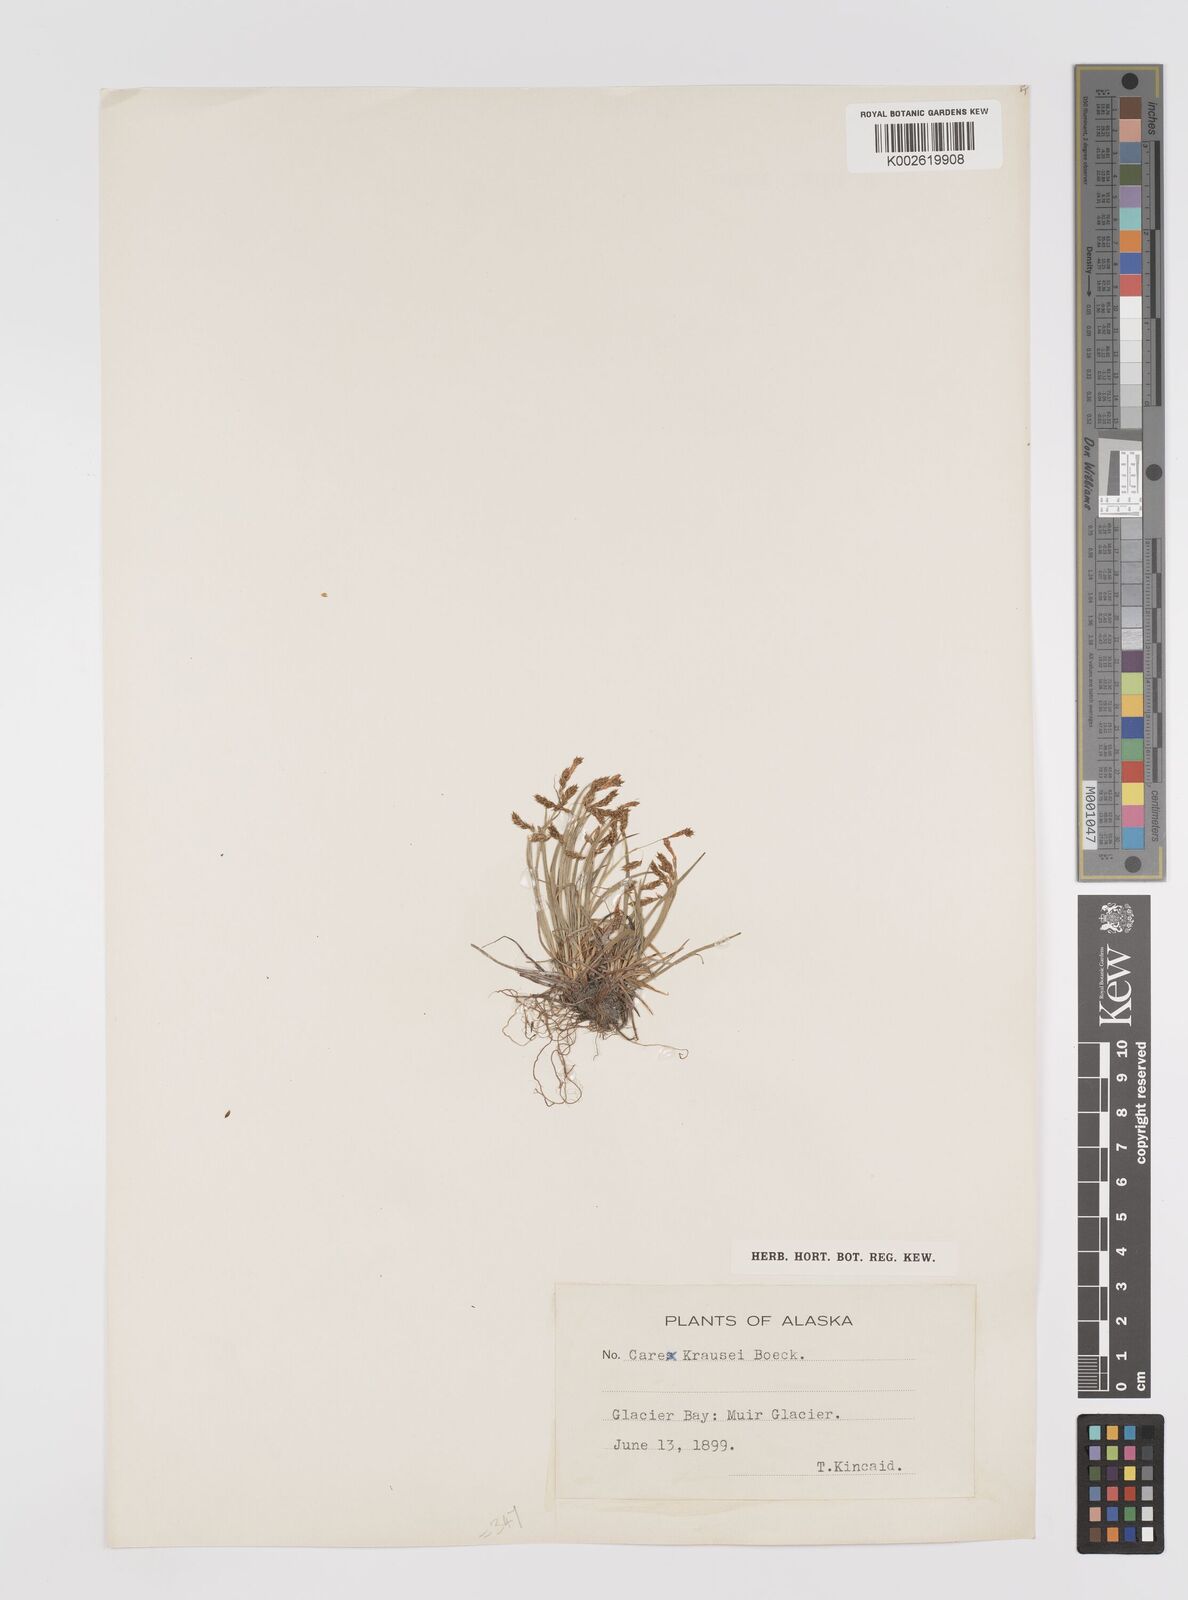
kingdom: Plantae
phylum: Tracheophyta
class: Liliopsida
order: Poales
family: Cyperaceae
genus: Carex
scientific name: Carex capillaris
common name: Hair sedge
